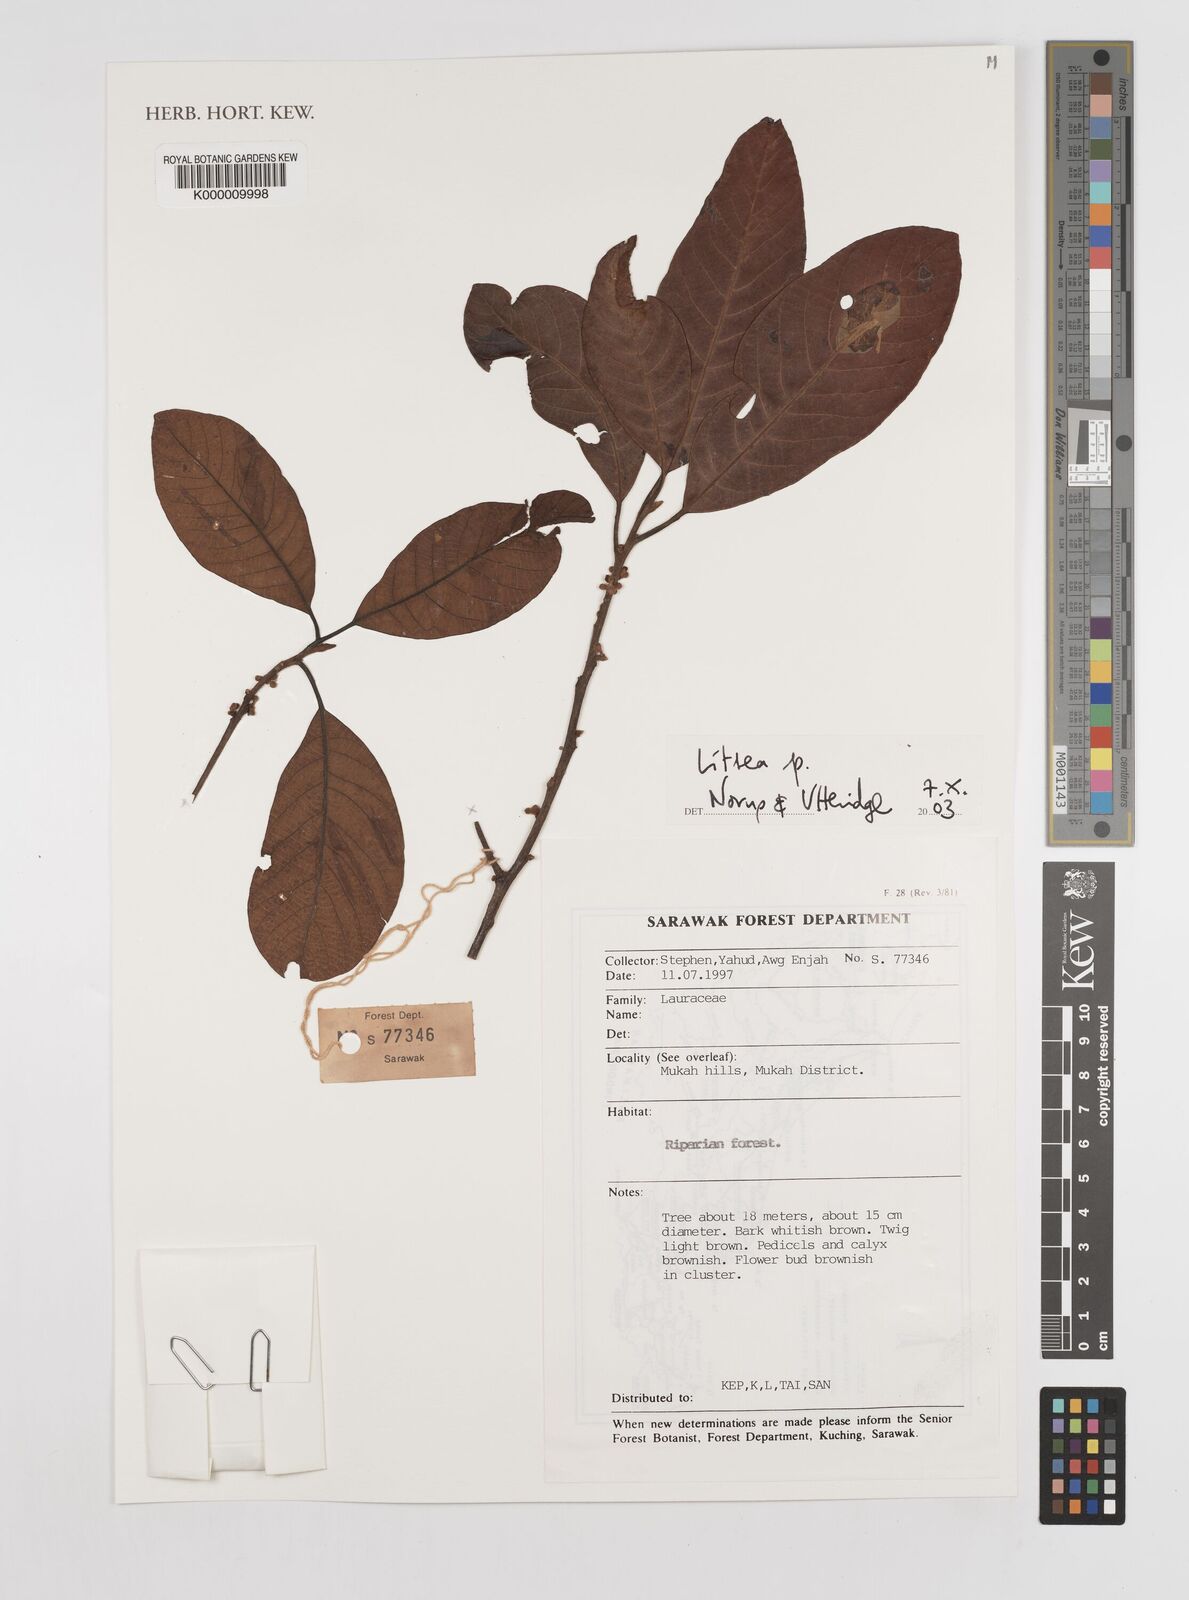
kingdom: Plantae
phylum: Tracheophyta
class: Magnoliopsida
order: Laurales
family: Lauraceae
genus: Litsea
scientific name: Litsea
